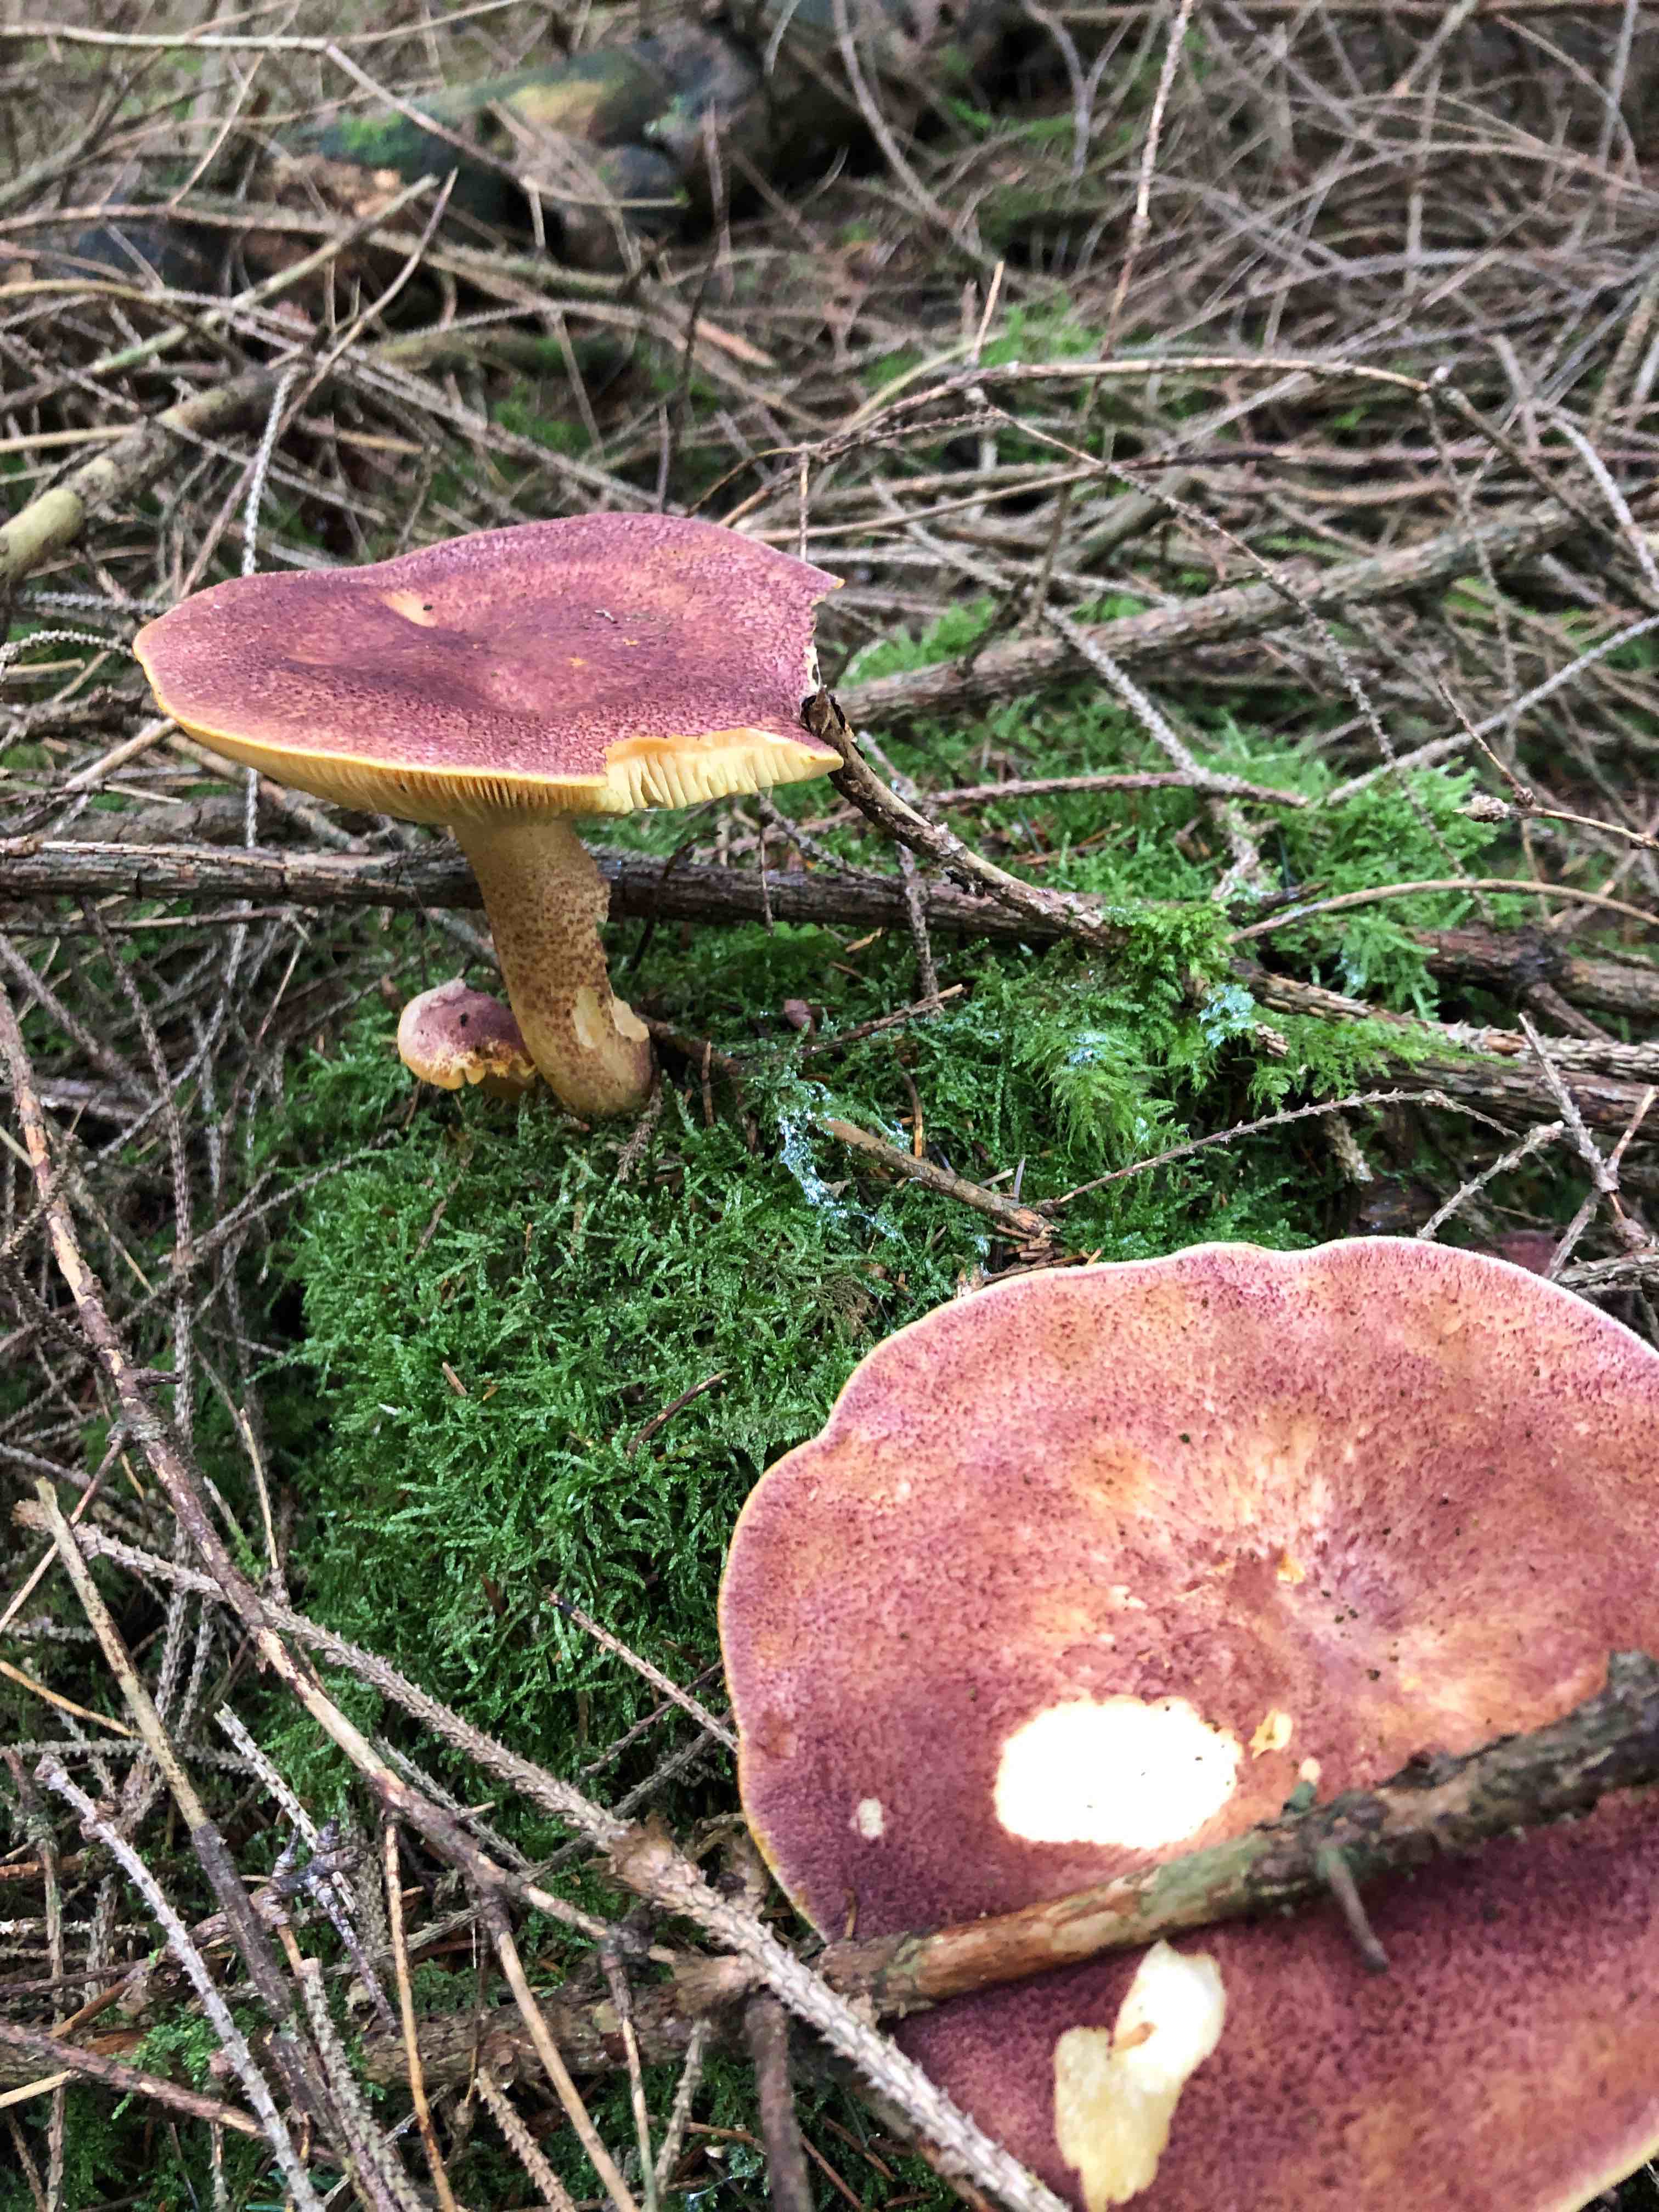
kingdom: Fungi
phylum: Basidiomycota
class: Agaricomycetes
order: Agaricales
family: Tricholomataceae
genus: Tricholomopsis
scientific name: Tricholomopsis rutilans
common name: purpur-væbnerhat
